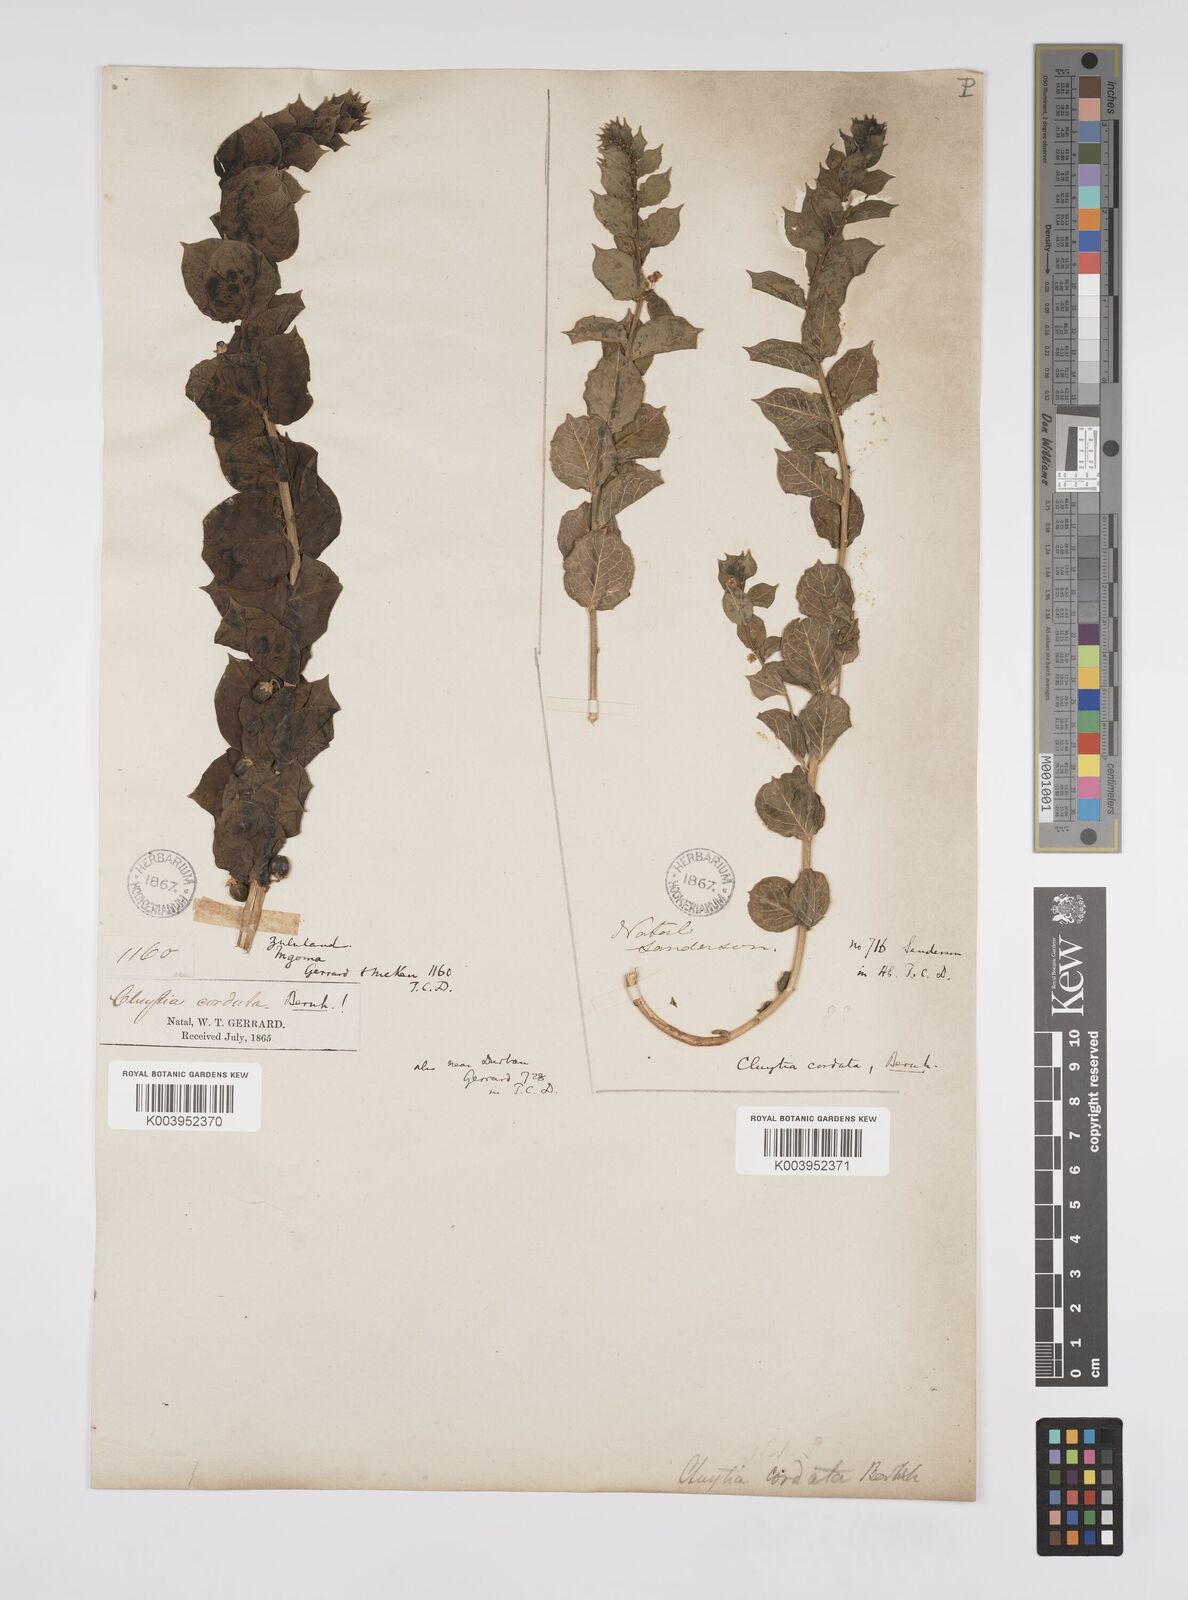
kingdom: Plantae
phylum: Tracheophyta
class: Magnoliopsida
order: Malpighiales
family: Peraceae
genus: Clutia
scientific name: Clutia cordata
